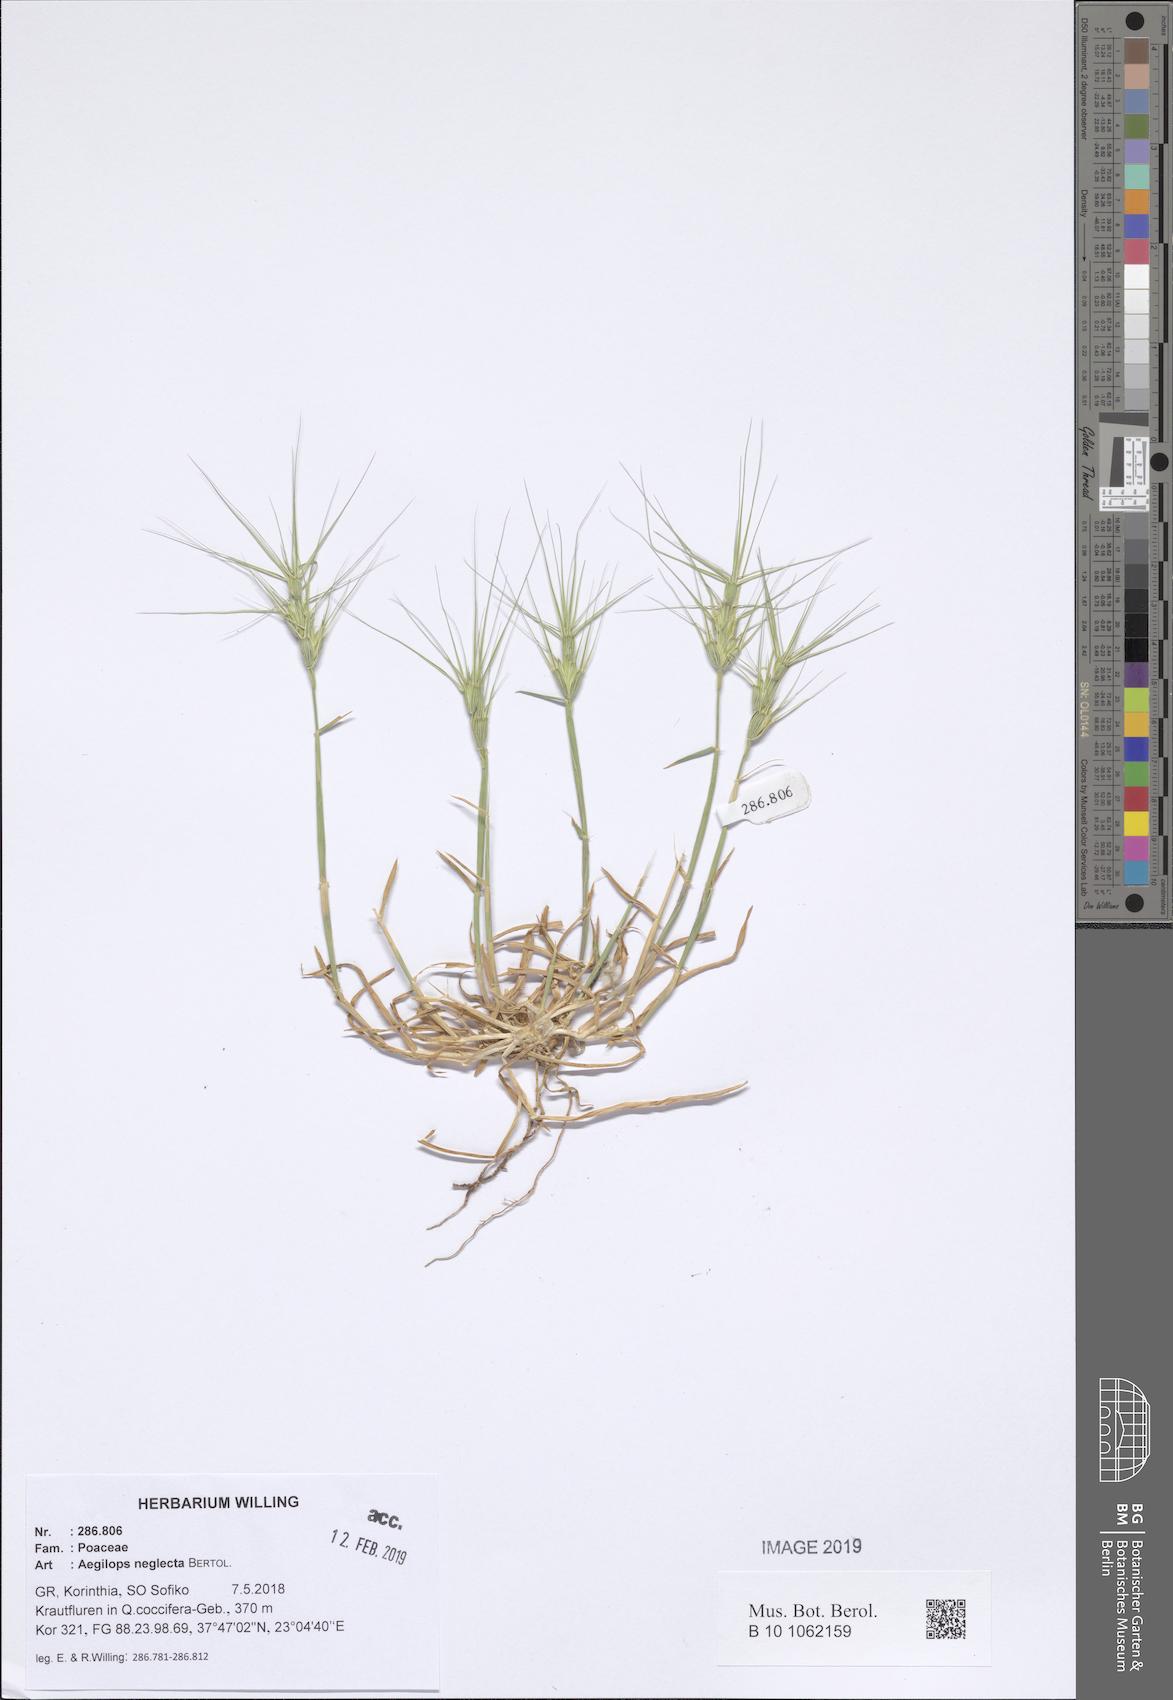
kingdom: Plantae
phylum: Tracheophyta
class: Liliopsida
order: Poales
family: Poaceae
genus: Aegilops
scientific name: Aegilops neglecta
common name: Three-awn goat grass
